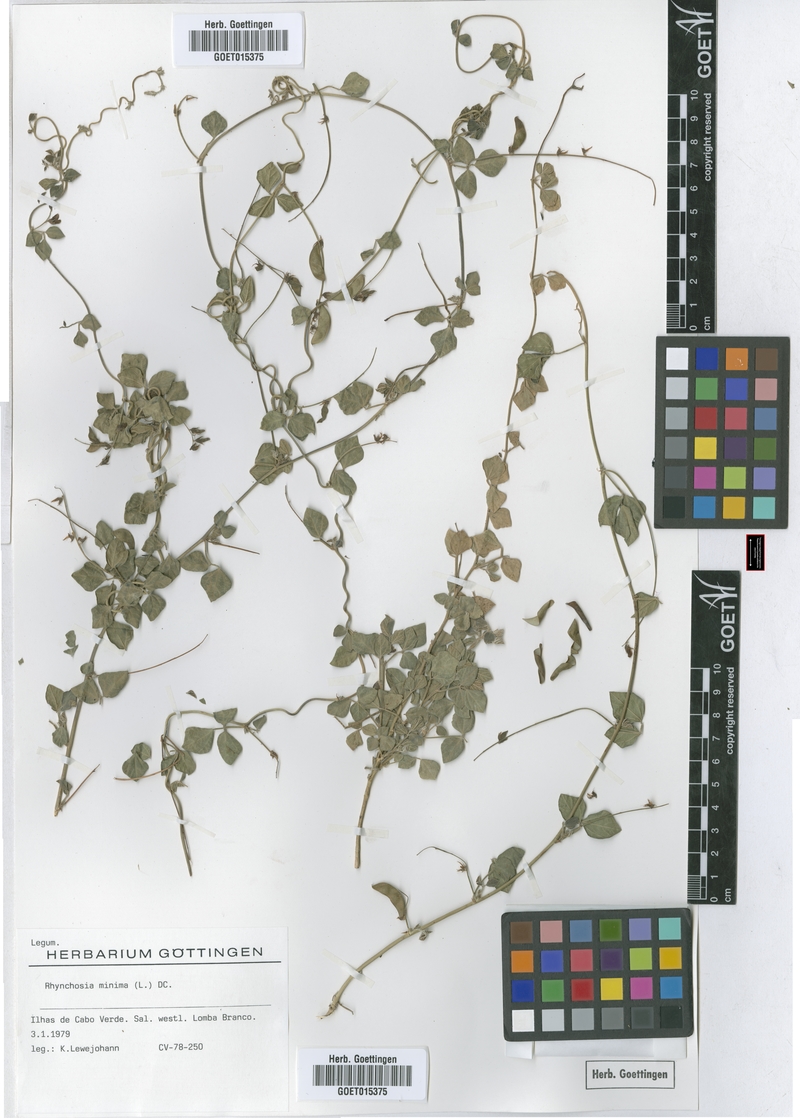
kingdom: Plantae
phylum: Tracheophyta
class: Magnoliopsida
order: Fabales
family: Fabaceae
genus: Rhynchosia
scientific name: Rhynchosia minima
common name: Least snoutbean
